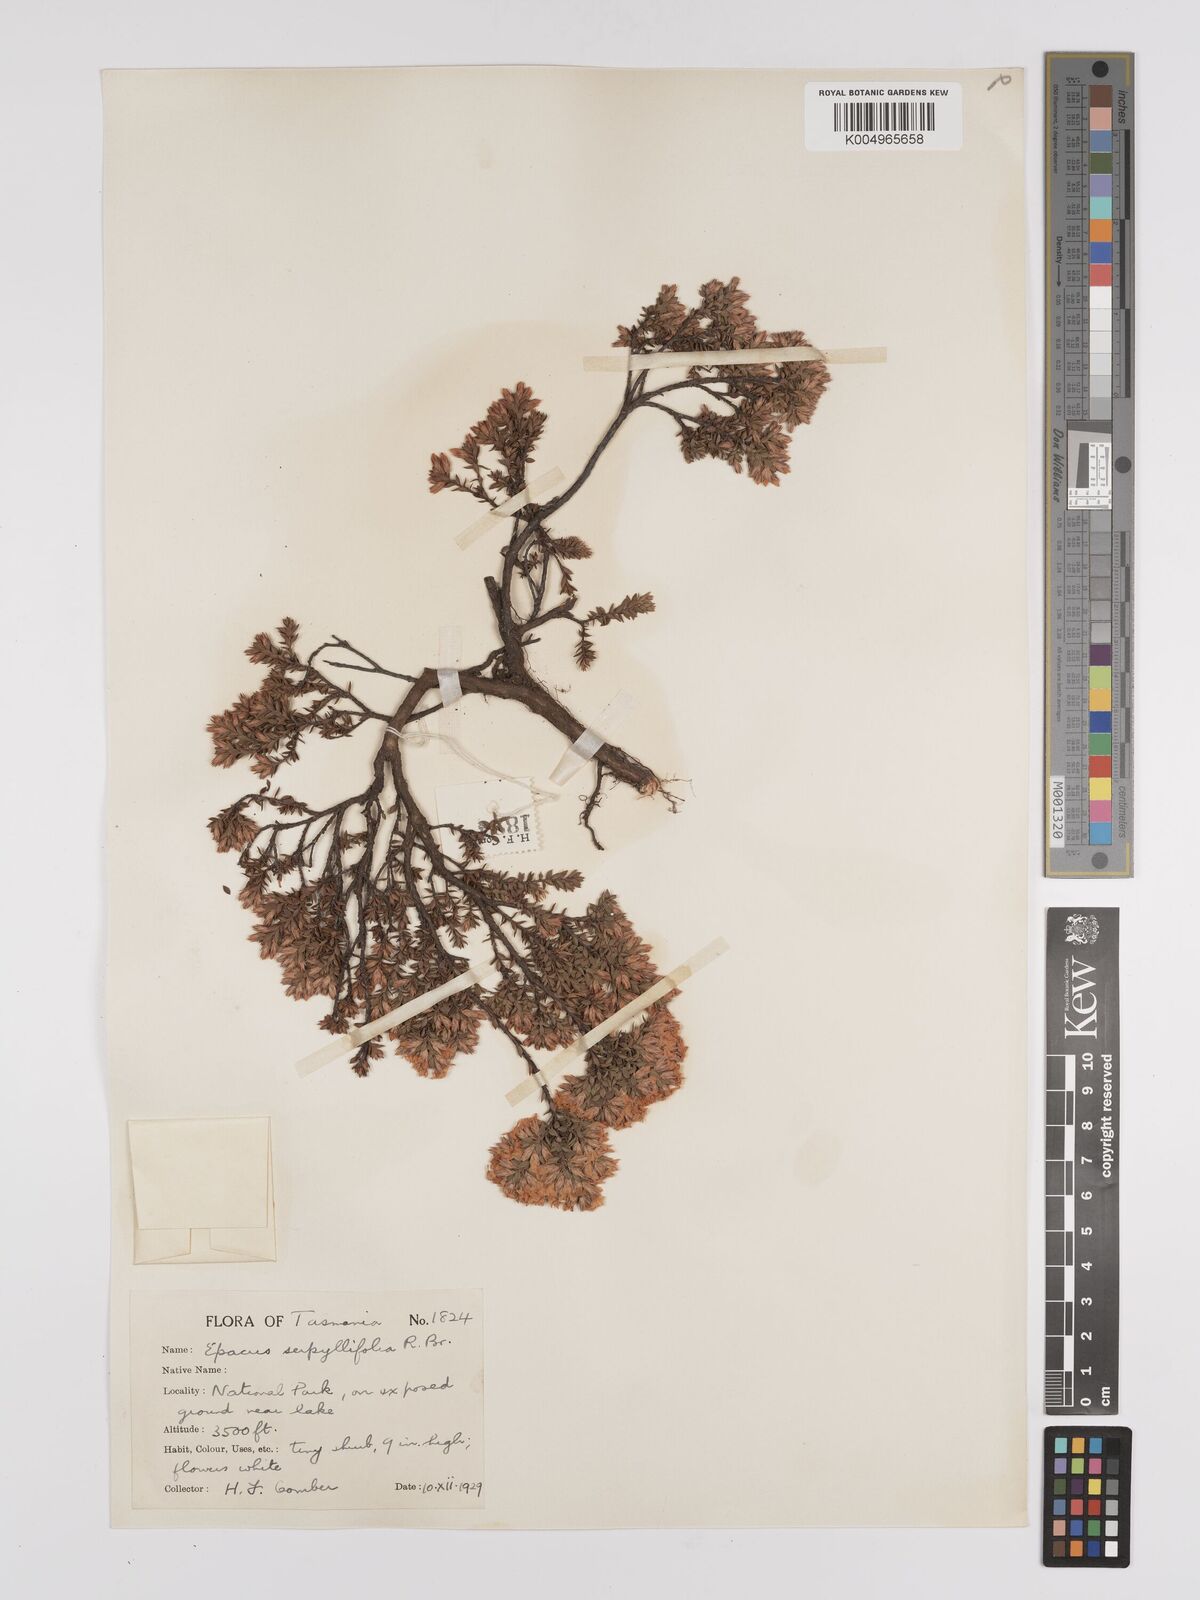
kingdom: Plantae
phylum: Tracheophyta
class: Magnoliopsida
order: Ericales
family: Ericaceae
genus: Epacris
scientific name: Epacris serpyllifolia
